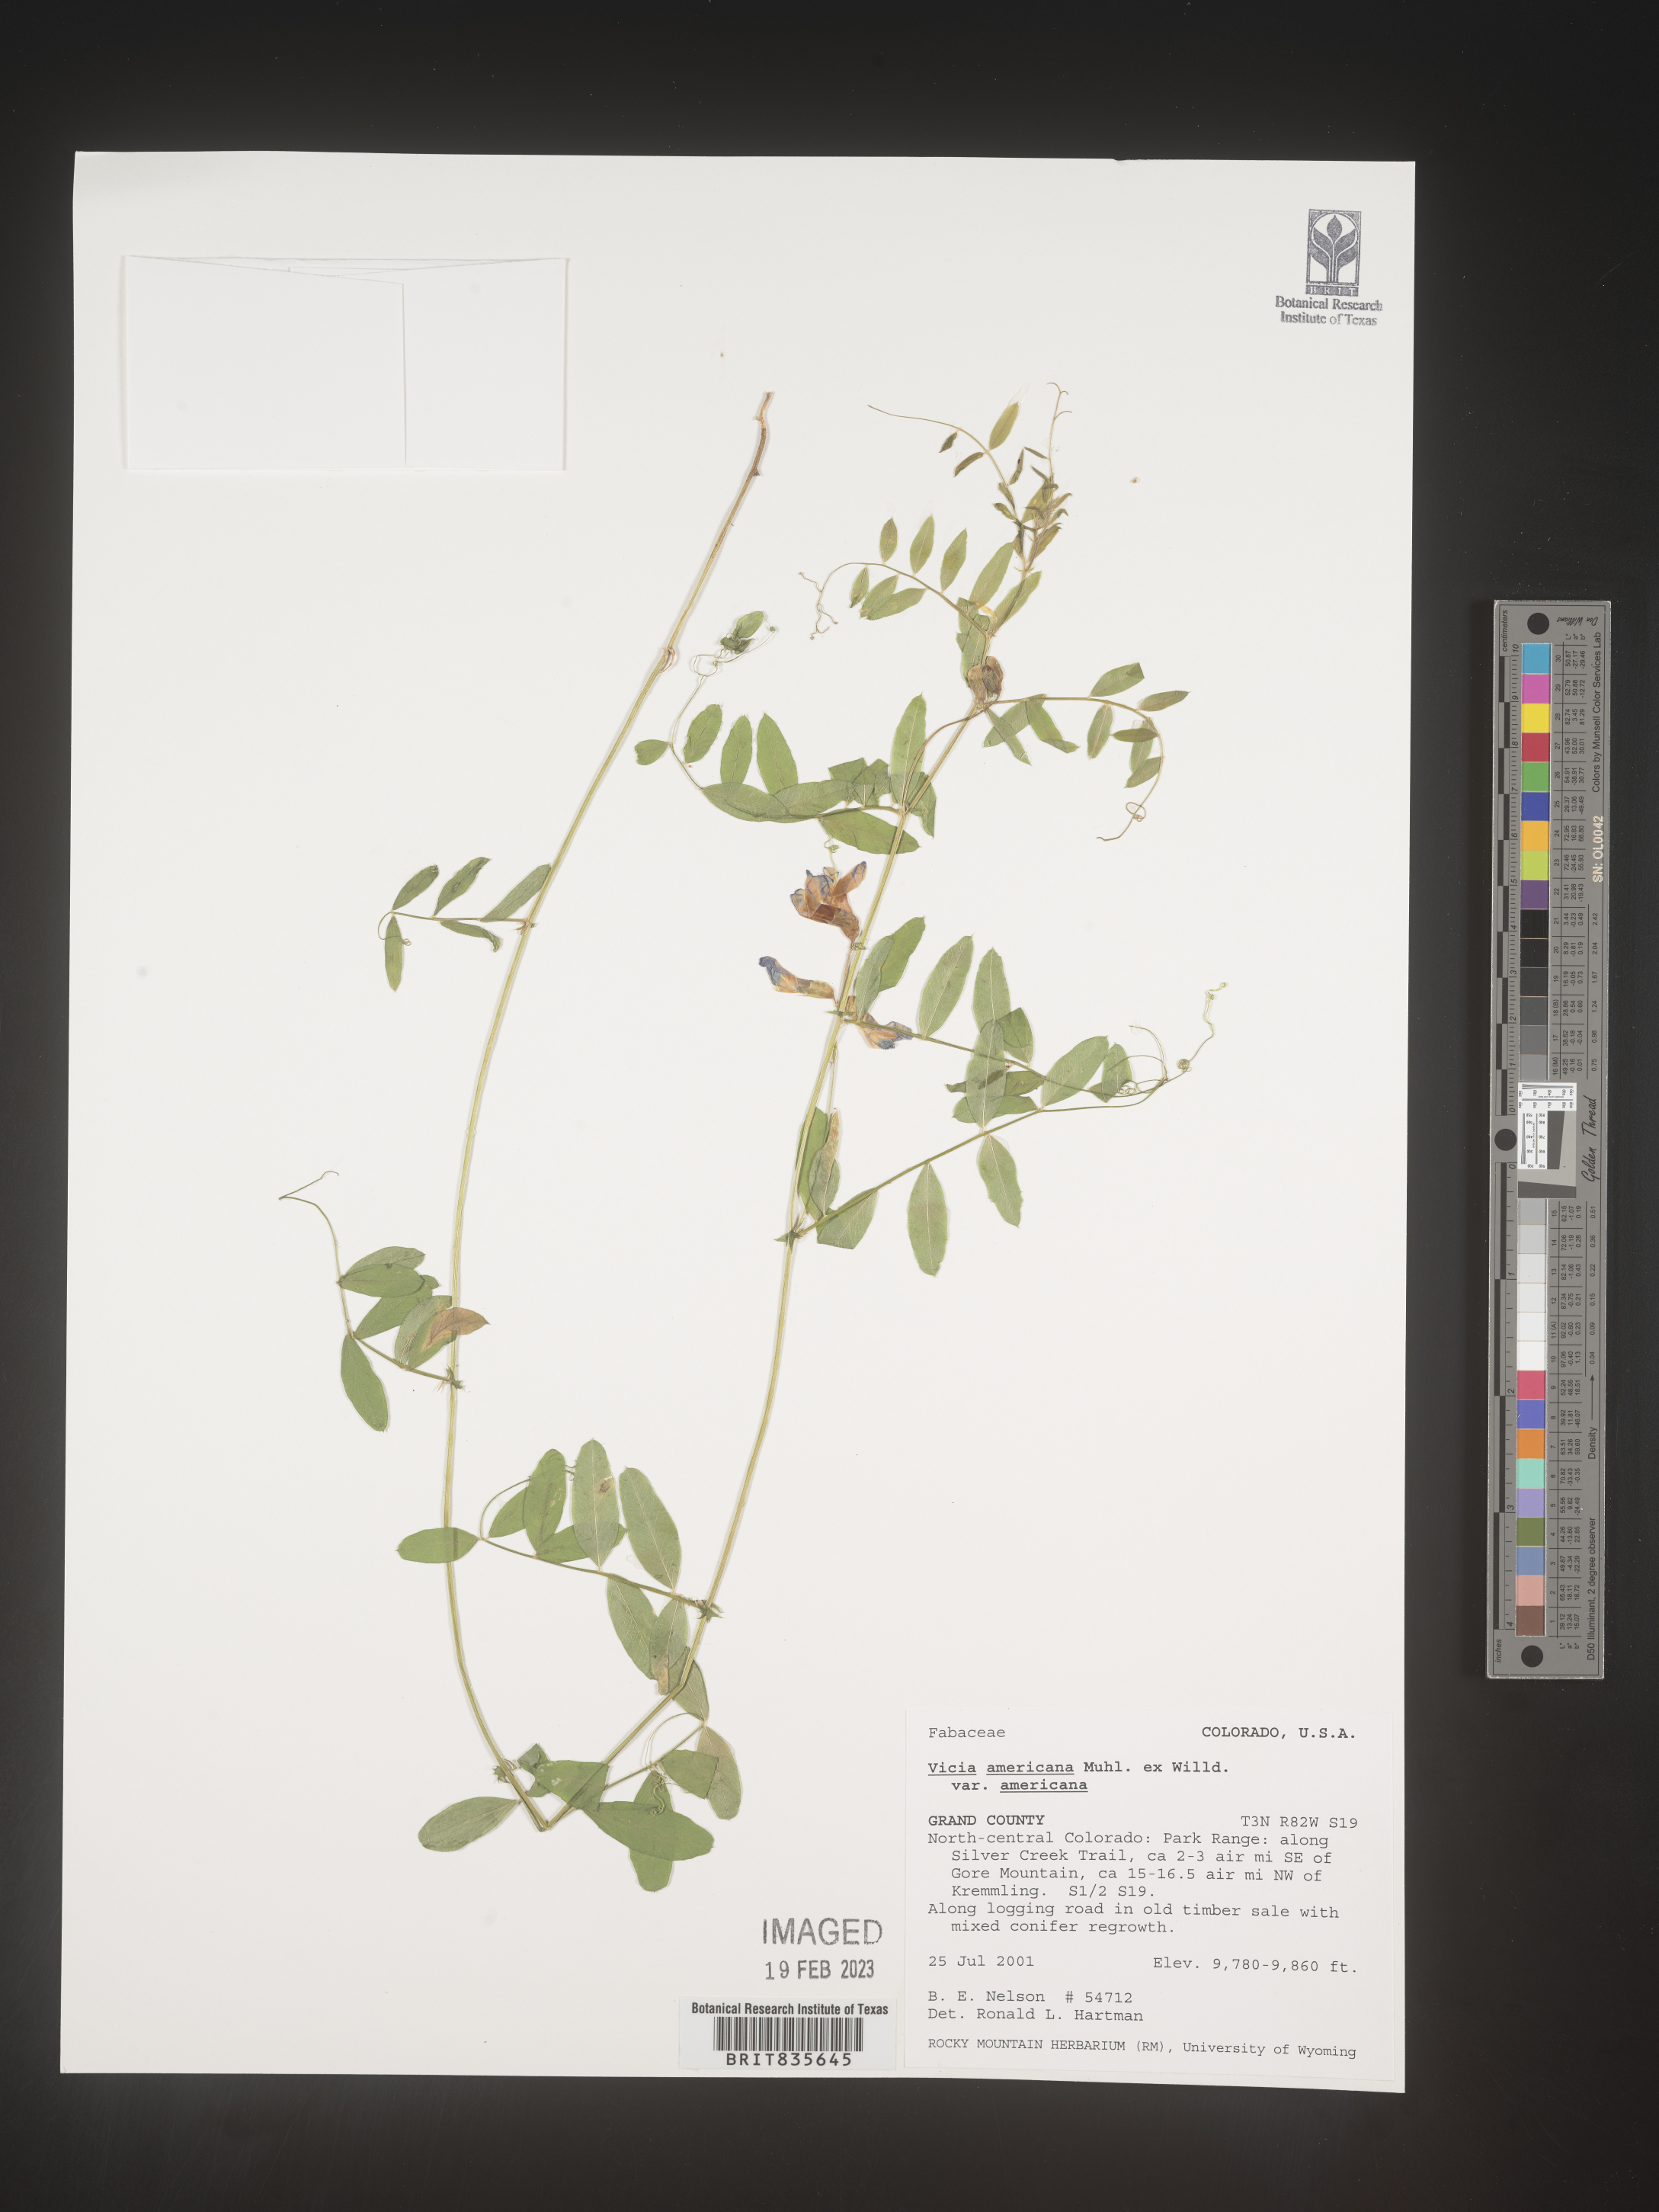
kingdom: Plantae
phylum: Tracheophyta
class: Magnoliopsida
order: Fabales
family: Fabaceae
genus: Vicia
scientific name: Vicia americana
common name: American vetch
